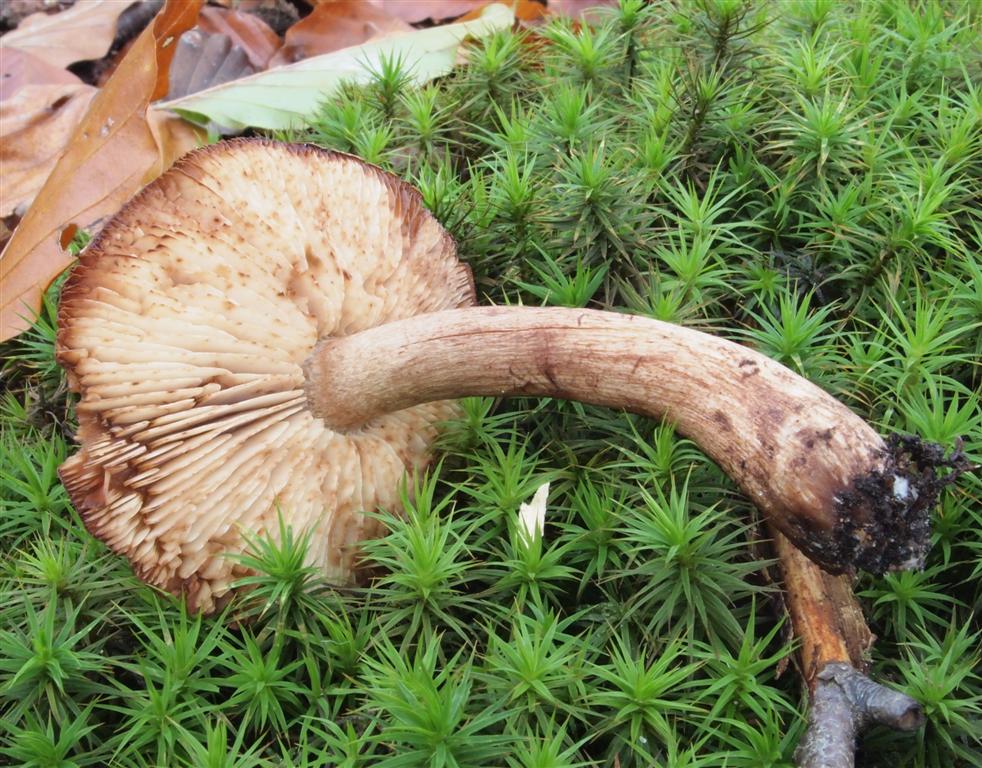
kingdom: Fungi
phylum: Basidiomycota
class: Agaricomycetes
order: Agaricales
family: Tricholomataceae
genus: Tricholoma
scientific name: Tricholoma ustale
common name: sveden ridderhat
